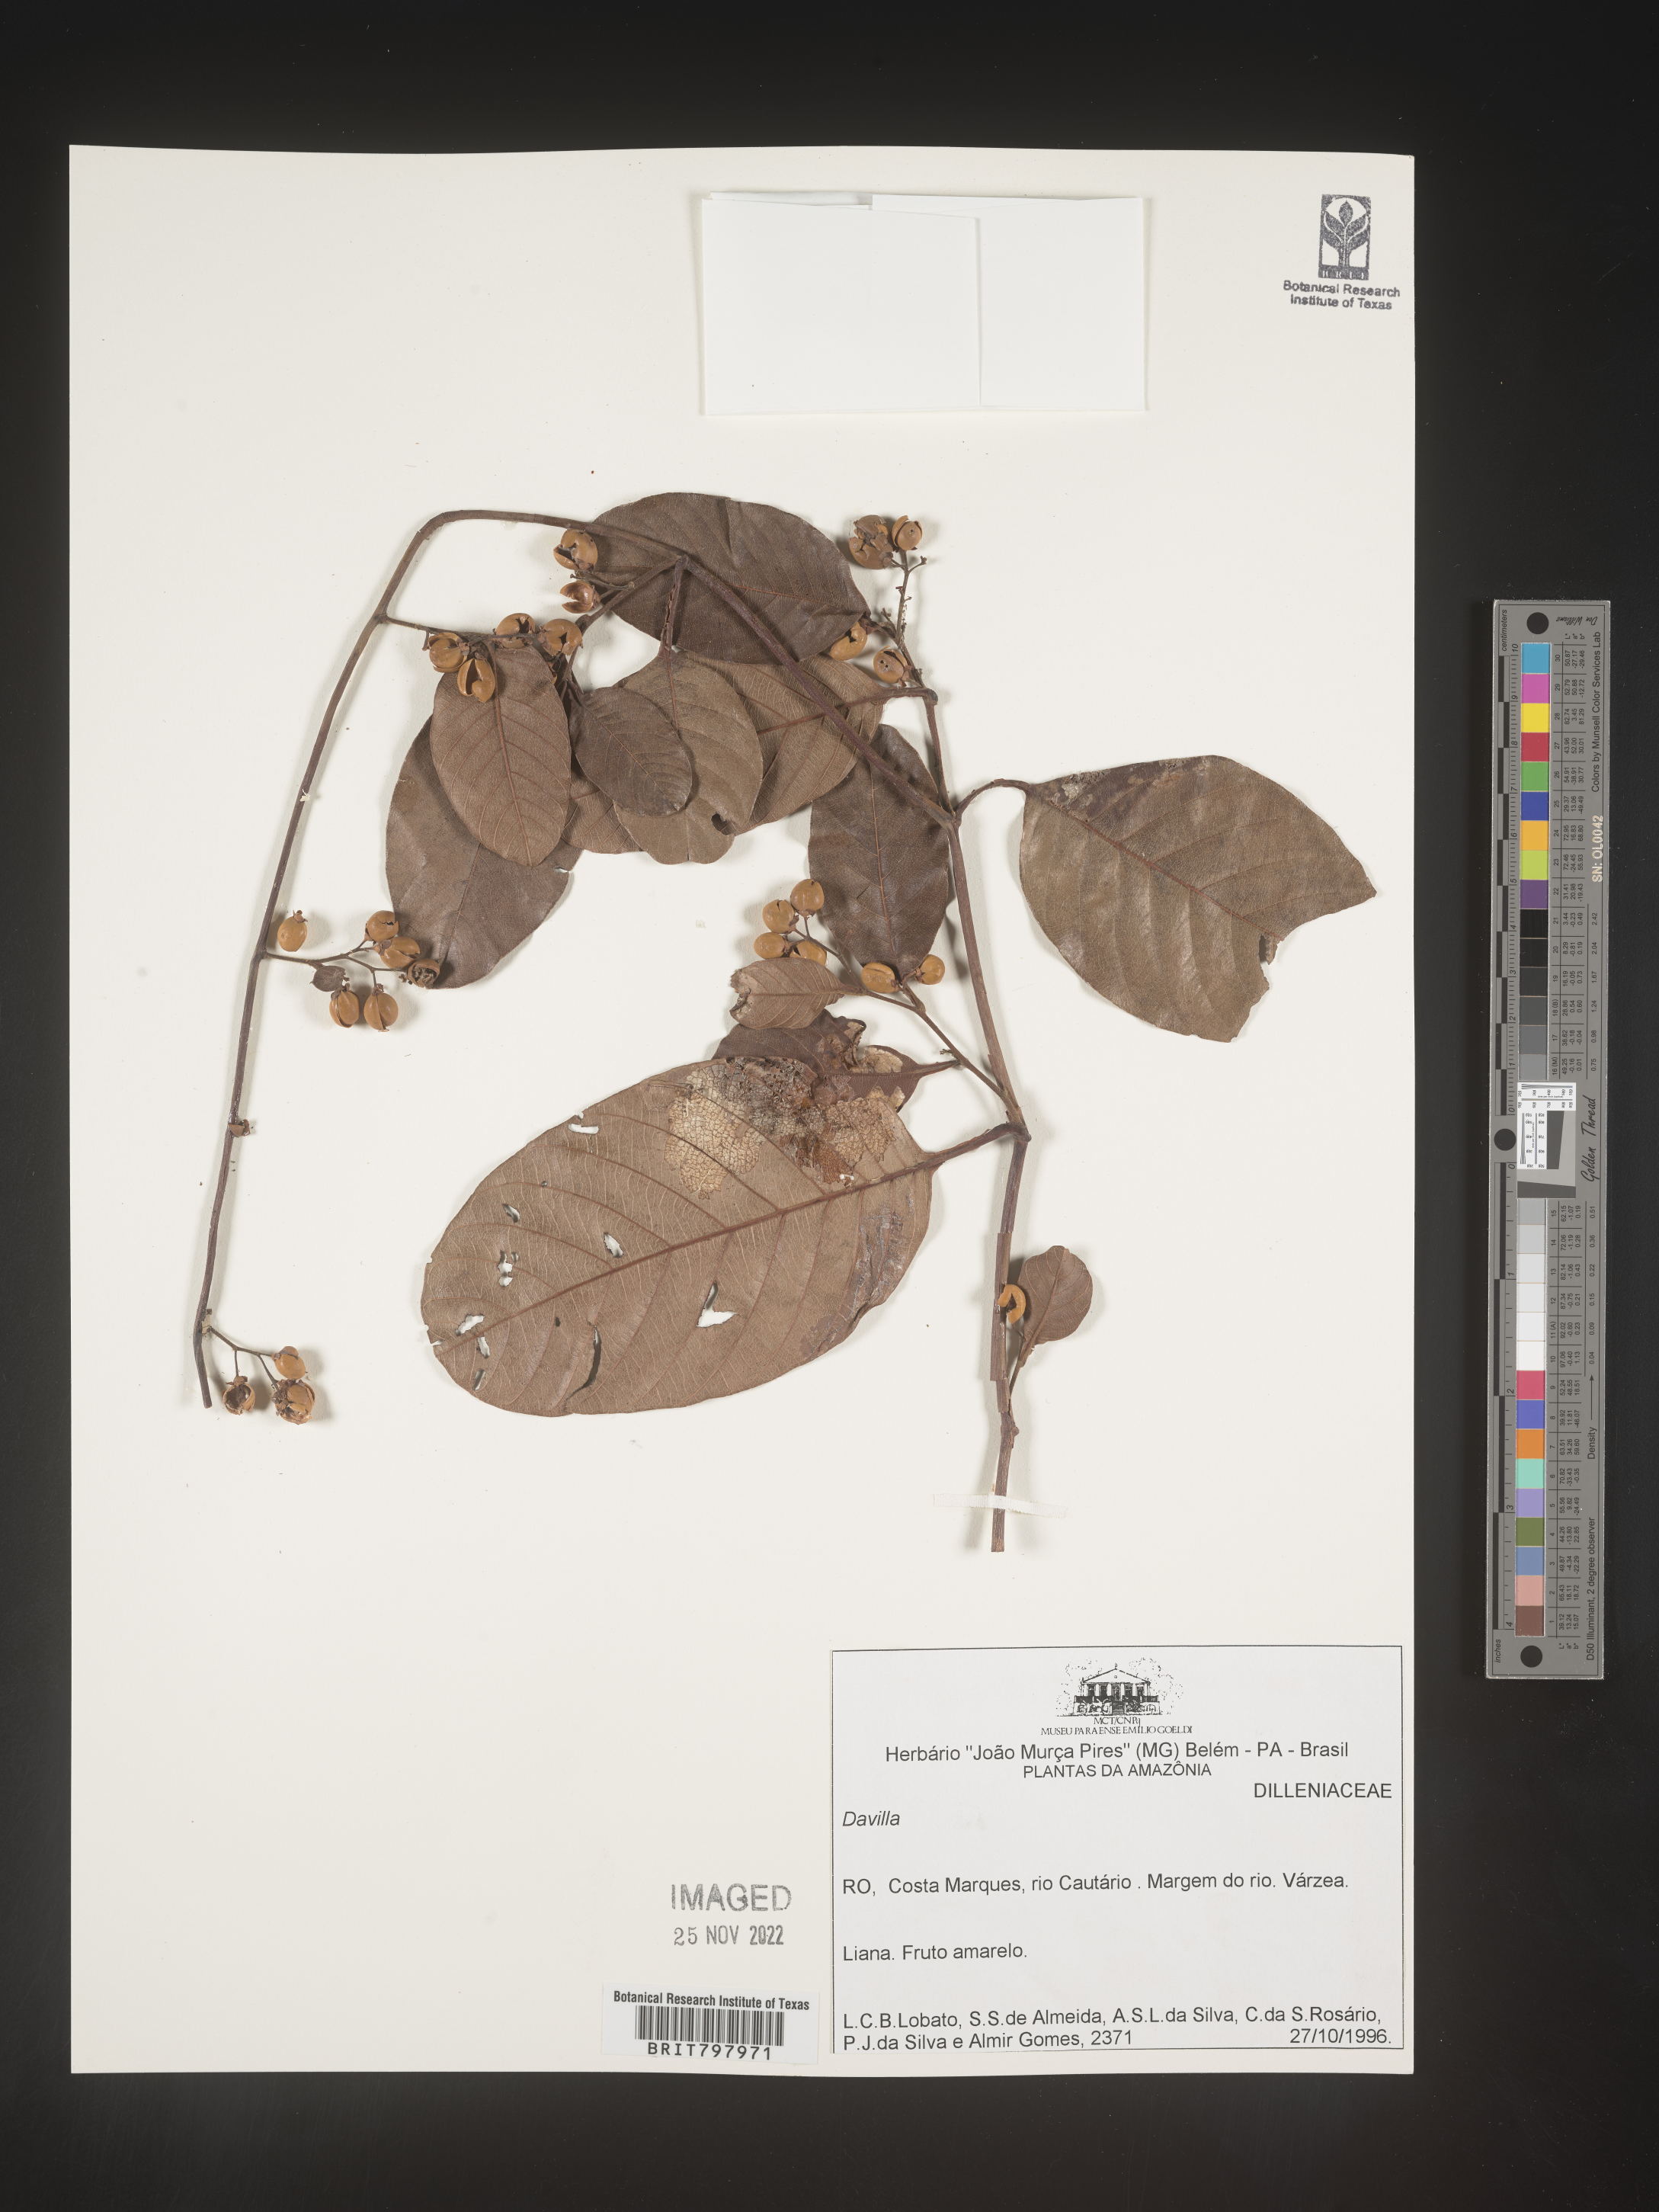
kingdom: Plantae
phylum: Tracheophyta
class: Polypodiopsida
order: Polypodiales
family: Davalliaceae
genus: Davallia
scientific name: Davallia
